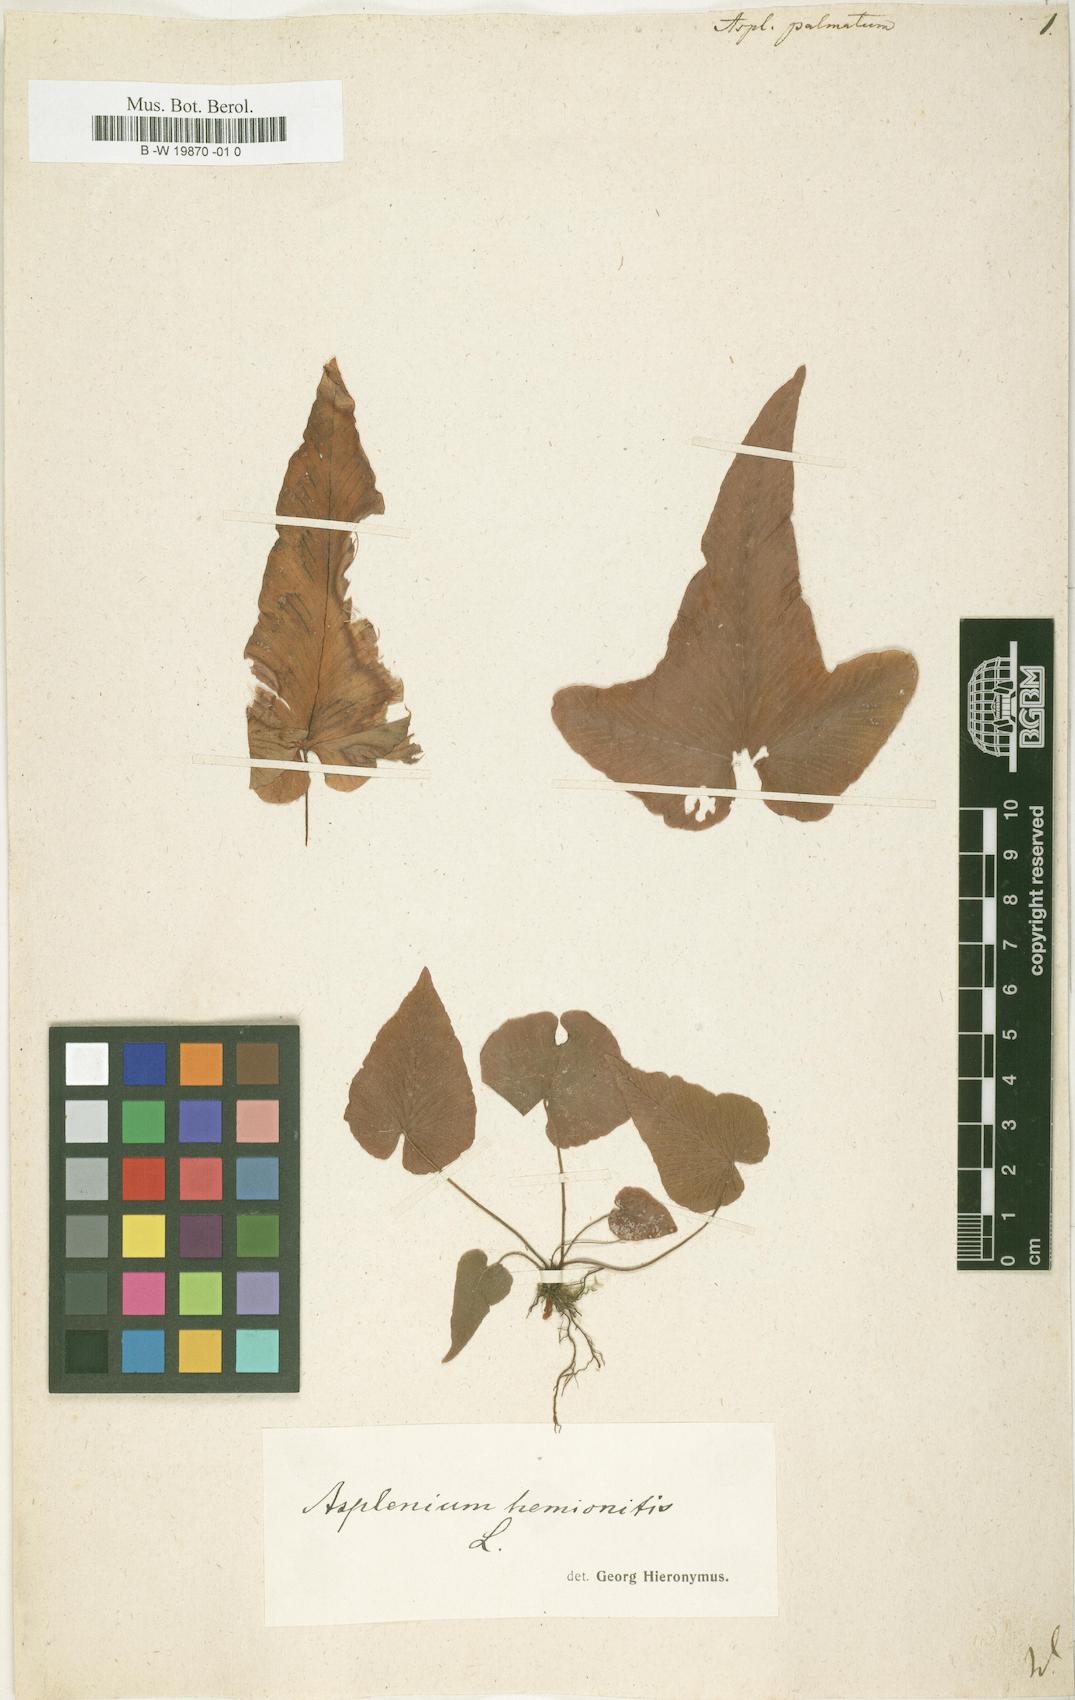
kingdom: Plantae
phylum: Tracheophyta
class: Polypodiopsida
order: Polypodiales
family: Aspleniaceae
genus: Asplenium
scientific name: Asplenium hemionitis
